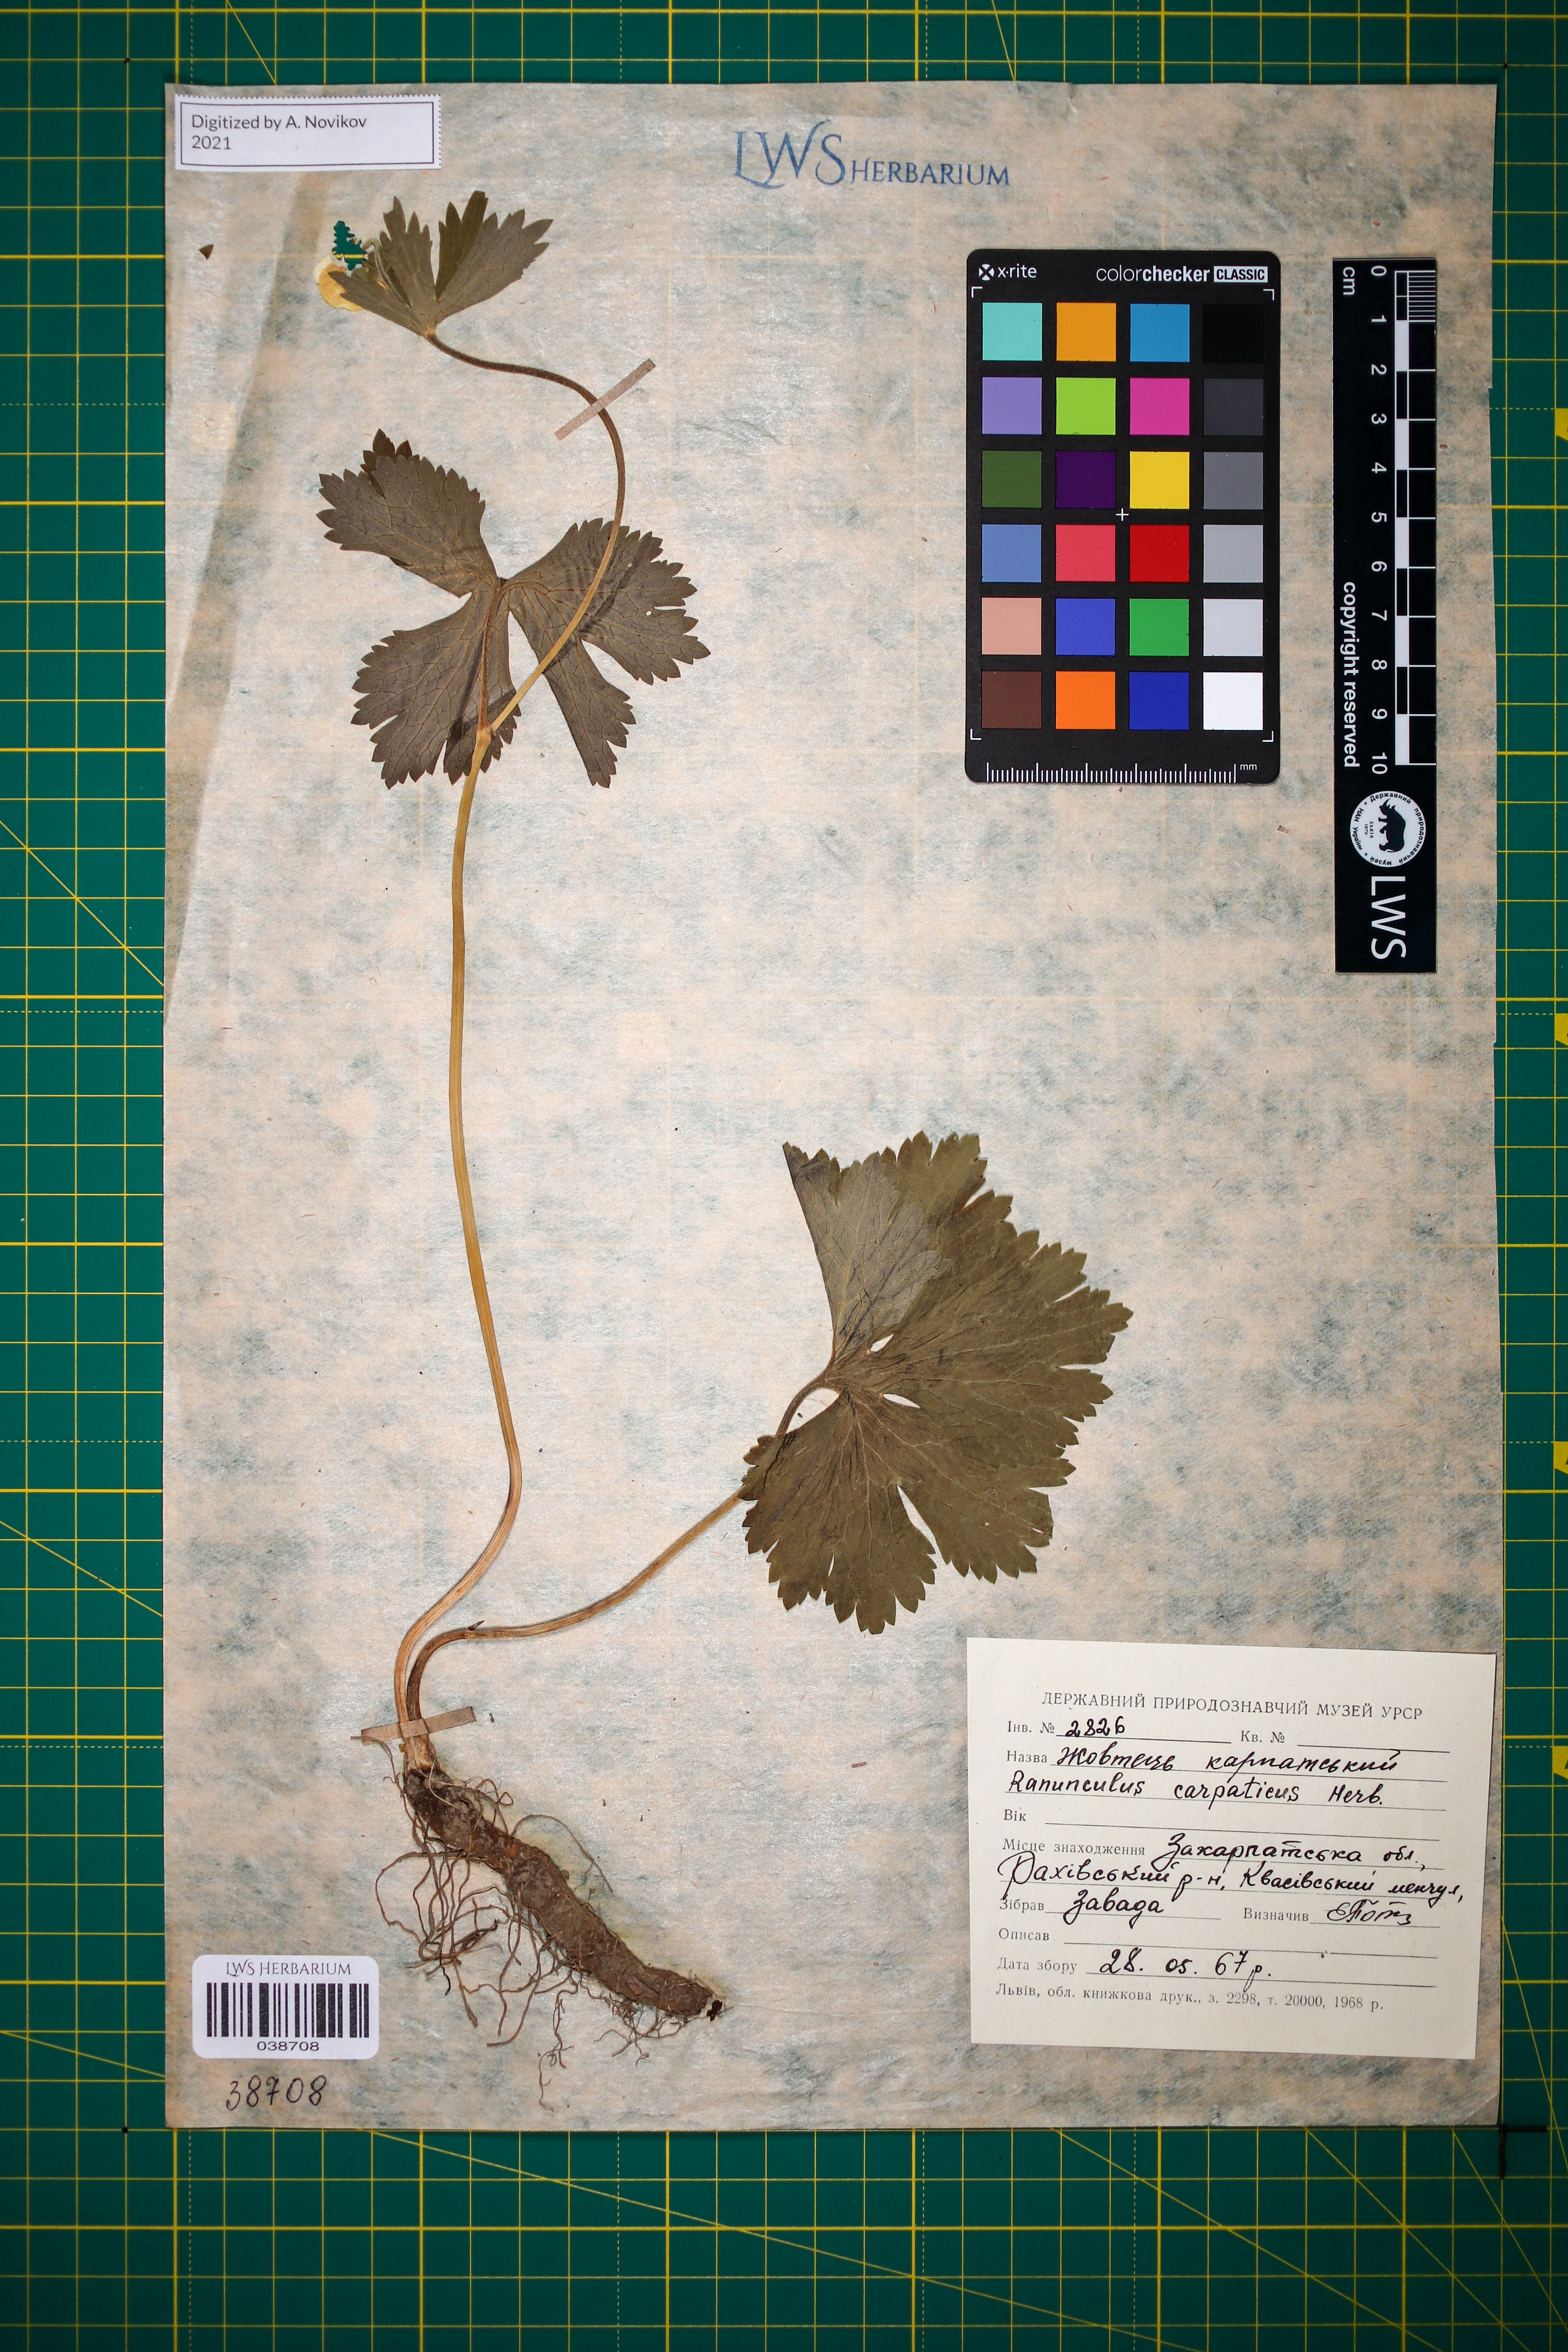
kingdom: Plantae
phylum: Tracheophyta
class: Magnoliopsida
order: Ranunculales
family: Ranunculaceae
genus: Ranunculus
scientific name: Ranunculus carpaticus
